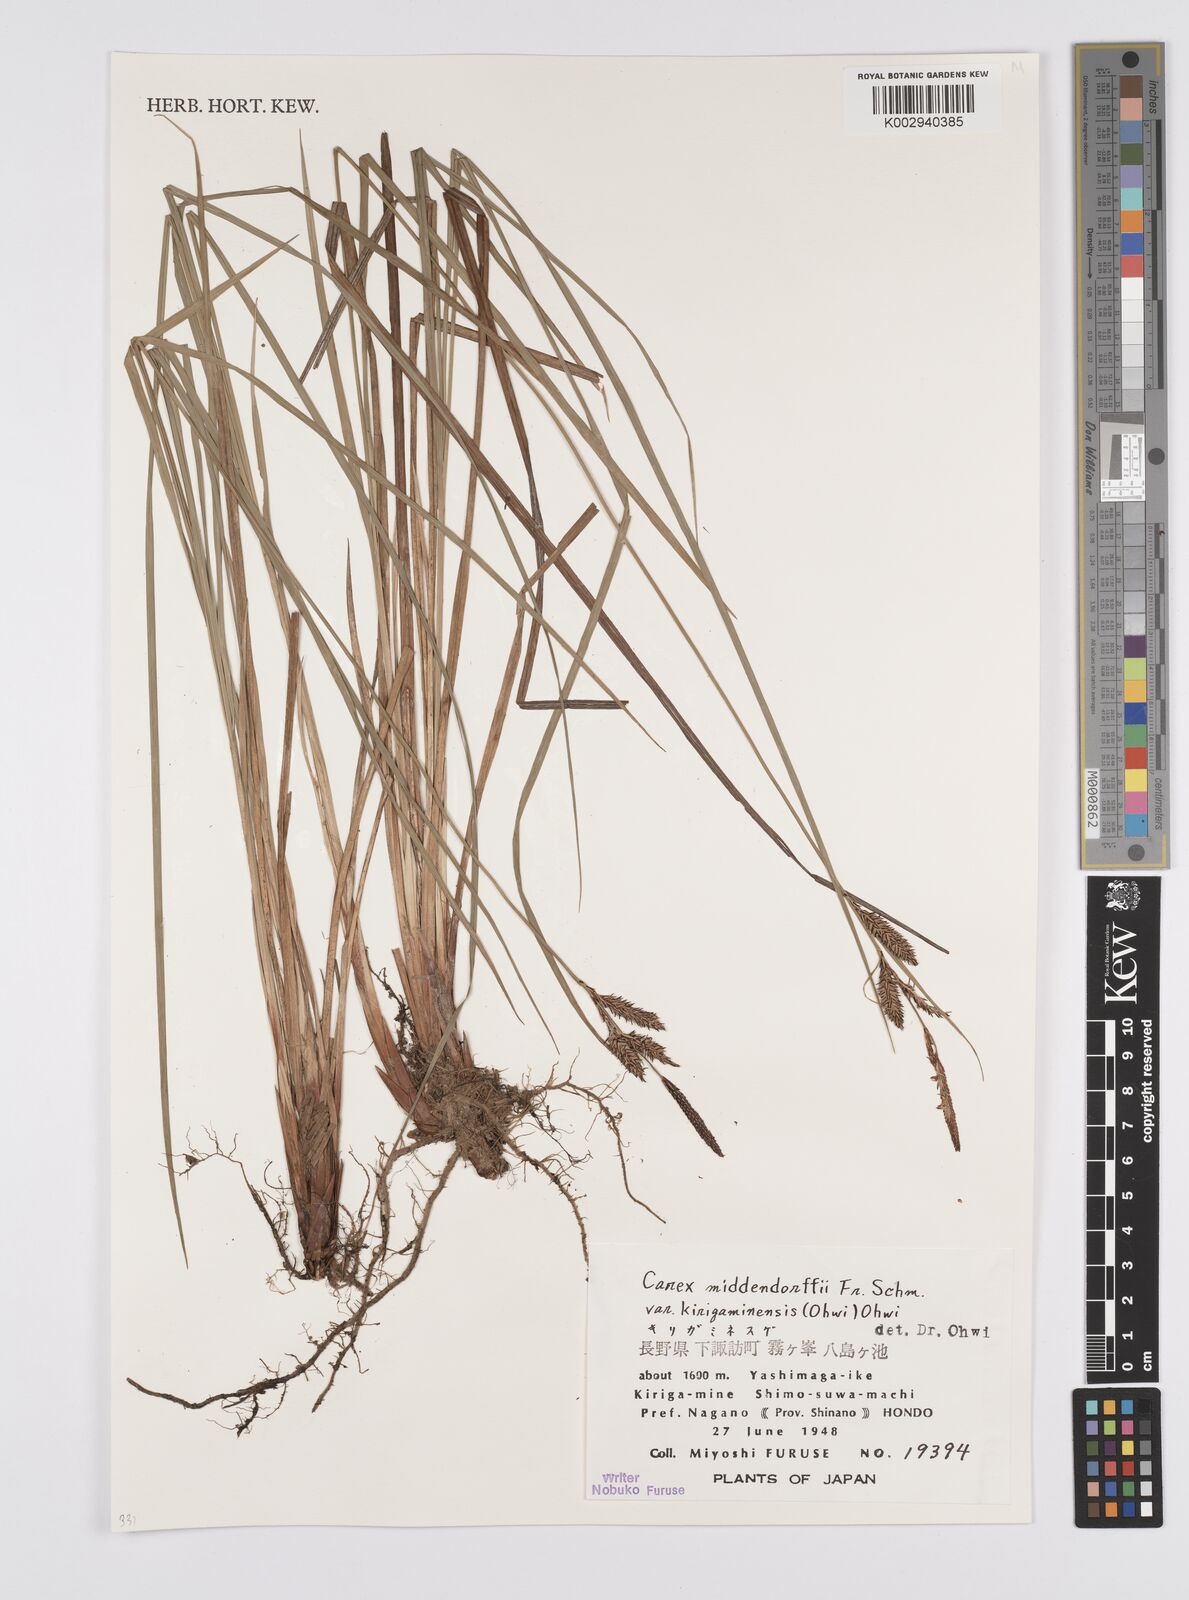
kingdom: Plantae
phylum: Tracheophyta
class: Liliopsida
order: Poales
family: Cyperaceae
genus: Carex
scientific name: Carex middendorffii
